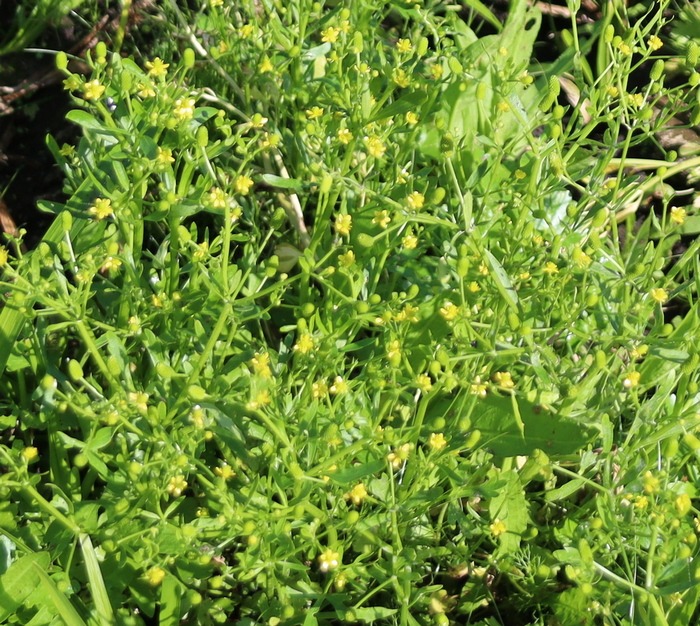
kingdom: Plantae
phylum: Tracheophyta
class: Magnoliopsida
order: Ranunculales
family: Ranunculaceae
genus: Ranunculus
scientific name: Ranunculus sceleratus
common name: Tigger-ranunkel
